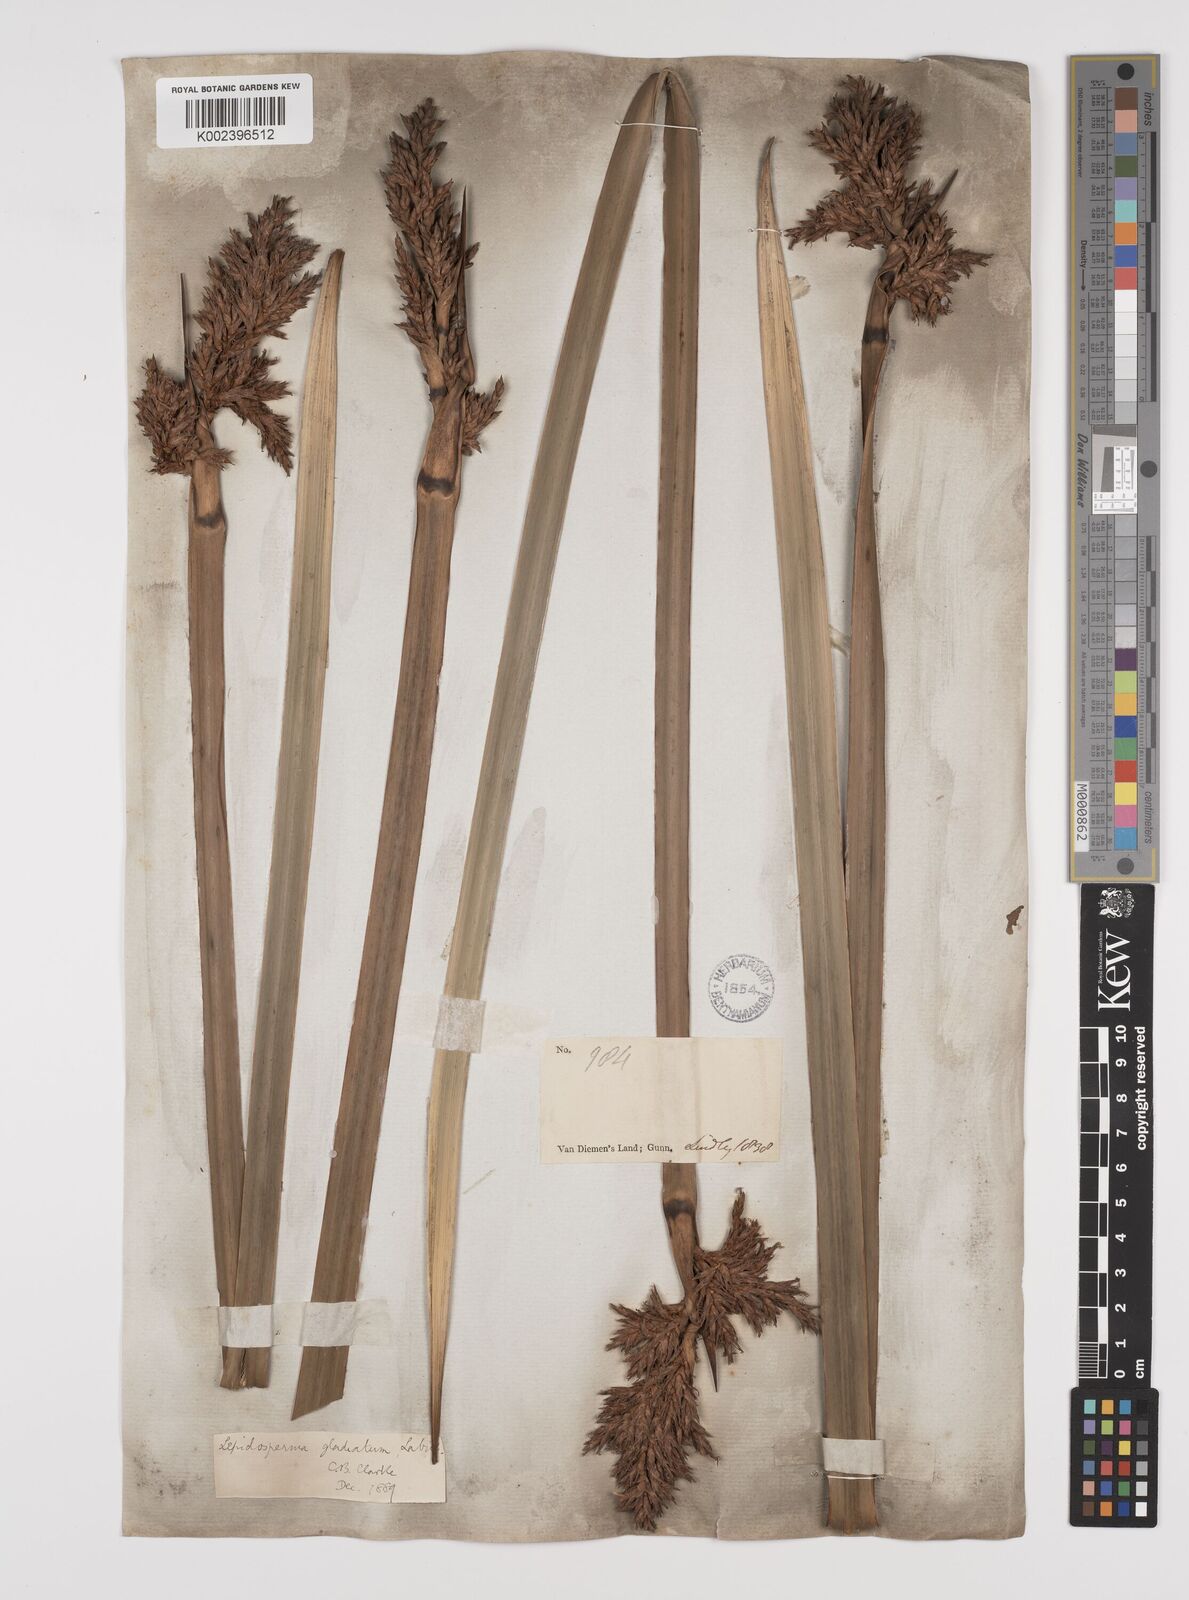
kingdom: Plantae
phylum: Tracheophyta
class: Liliopsida
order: Poales
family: Cyperaceae
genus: Lepidosperma
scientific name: Lepidosperma gladiatum
